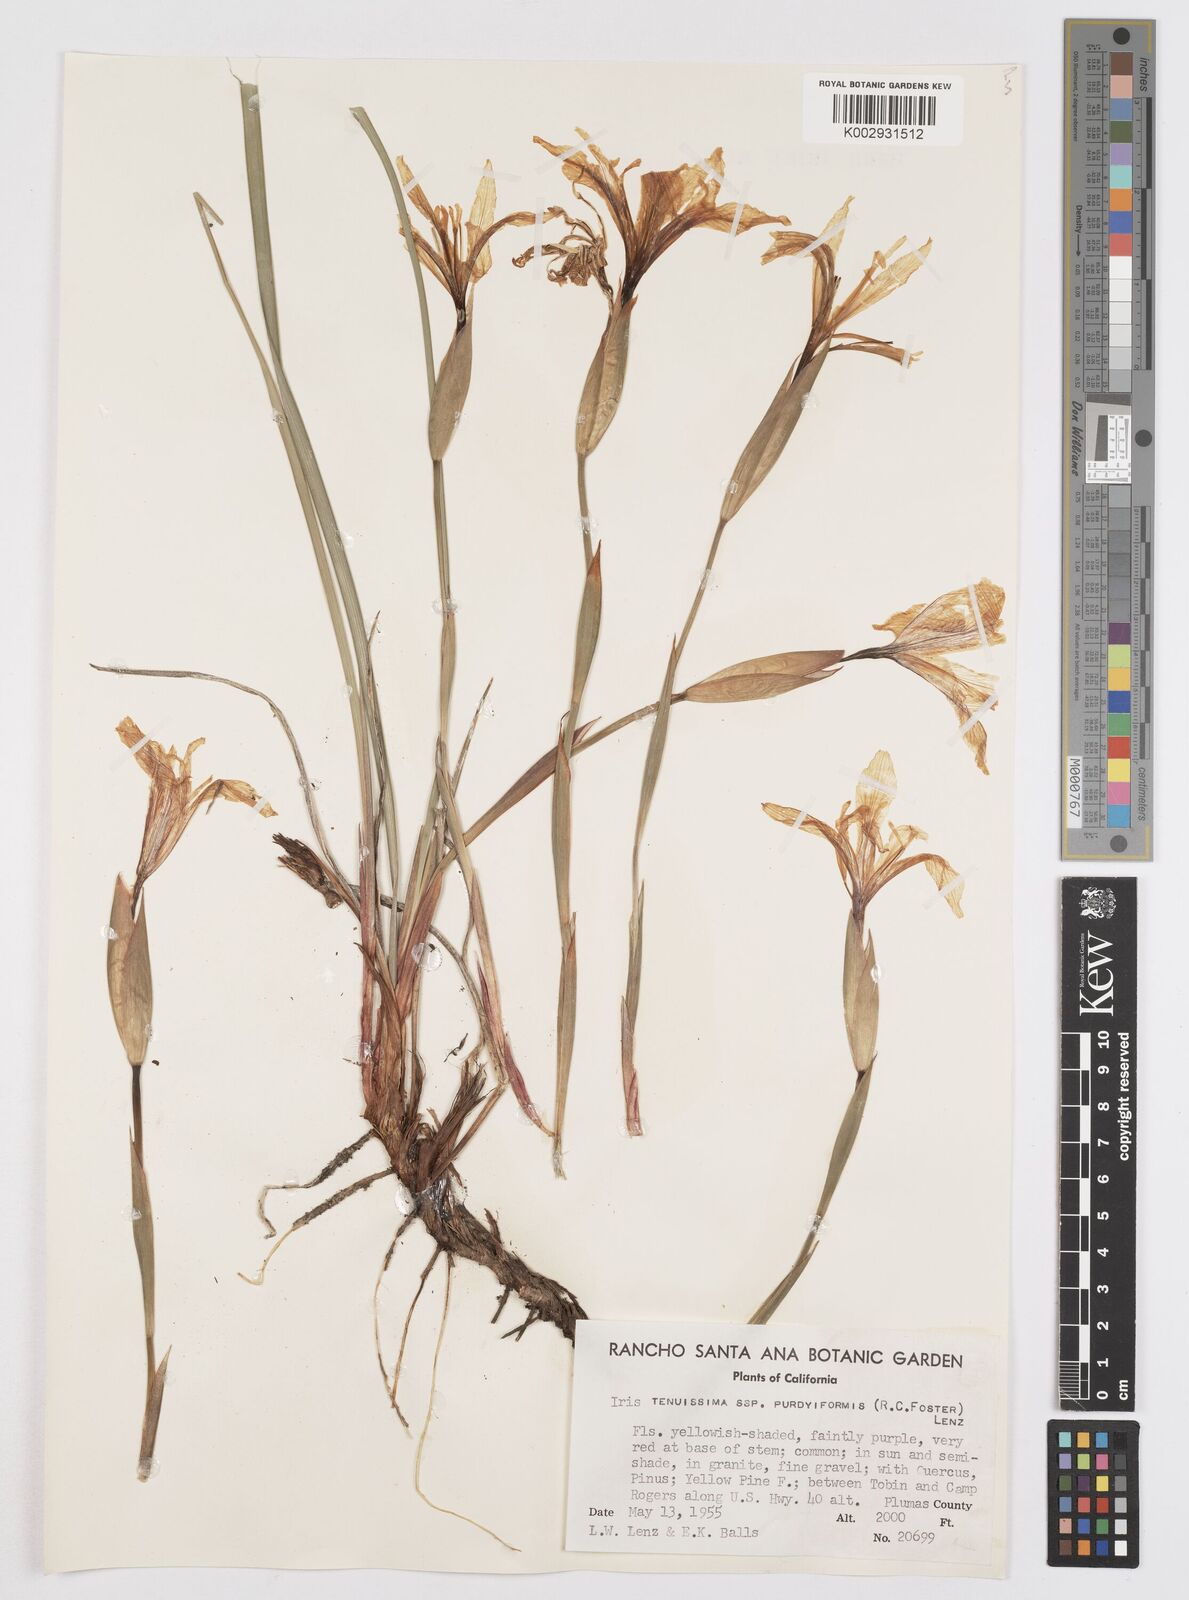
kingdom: Plantae
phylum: Tracheophyta
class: Liliopsida
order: Asparagales
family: Iridaceae
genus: Iris
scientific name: Iris tenuissima
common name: Long-tube iris
